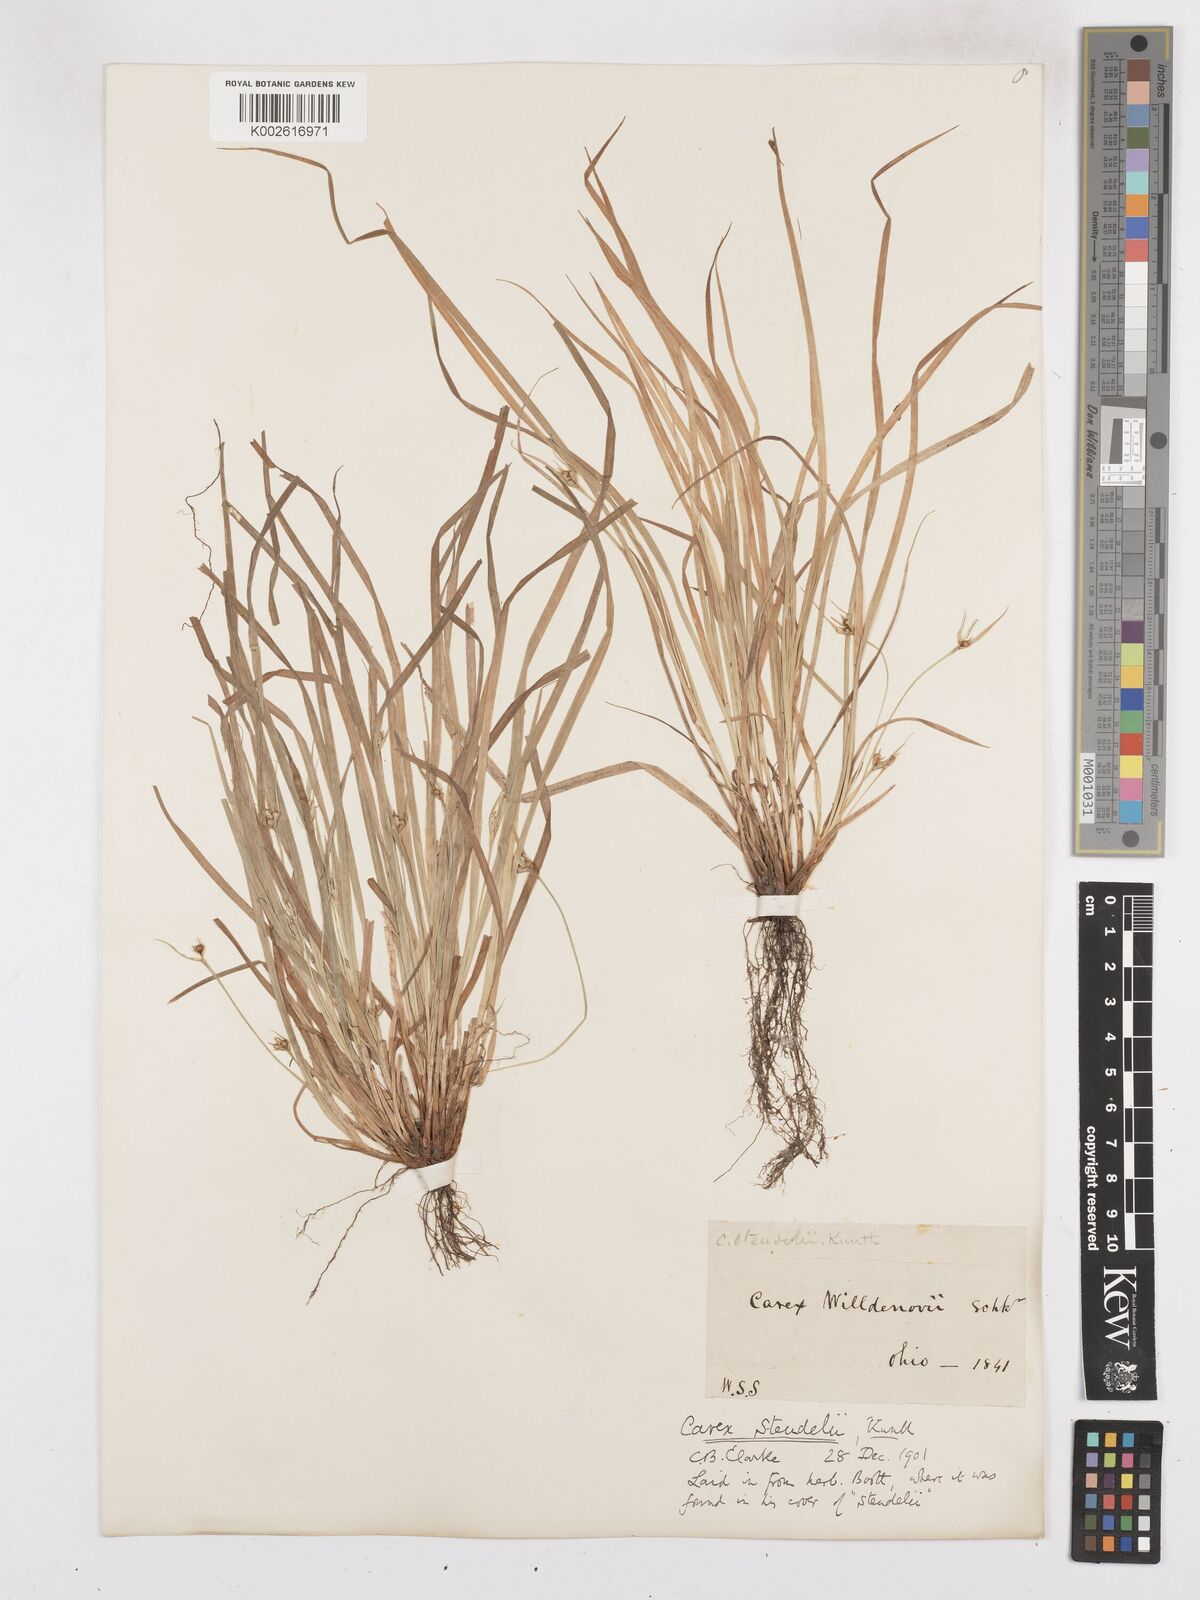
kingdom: Plantae
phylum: Tracheophyta
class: Liliopsida
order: Poales
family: Cyperaceae
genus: Carex
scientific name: Carex jamesii
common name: Grass sedge
